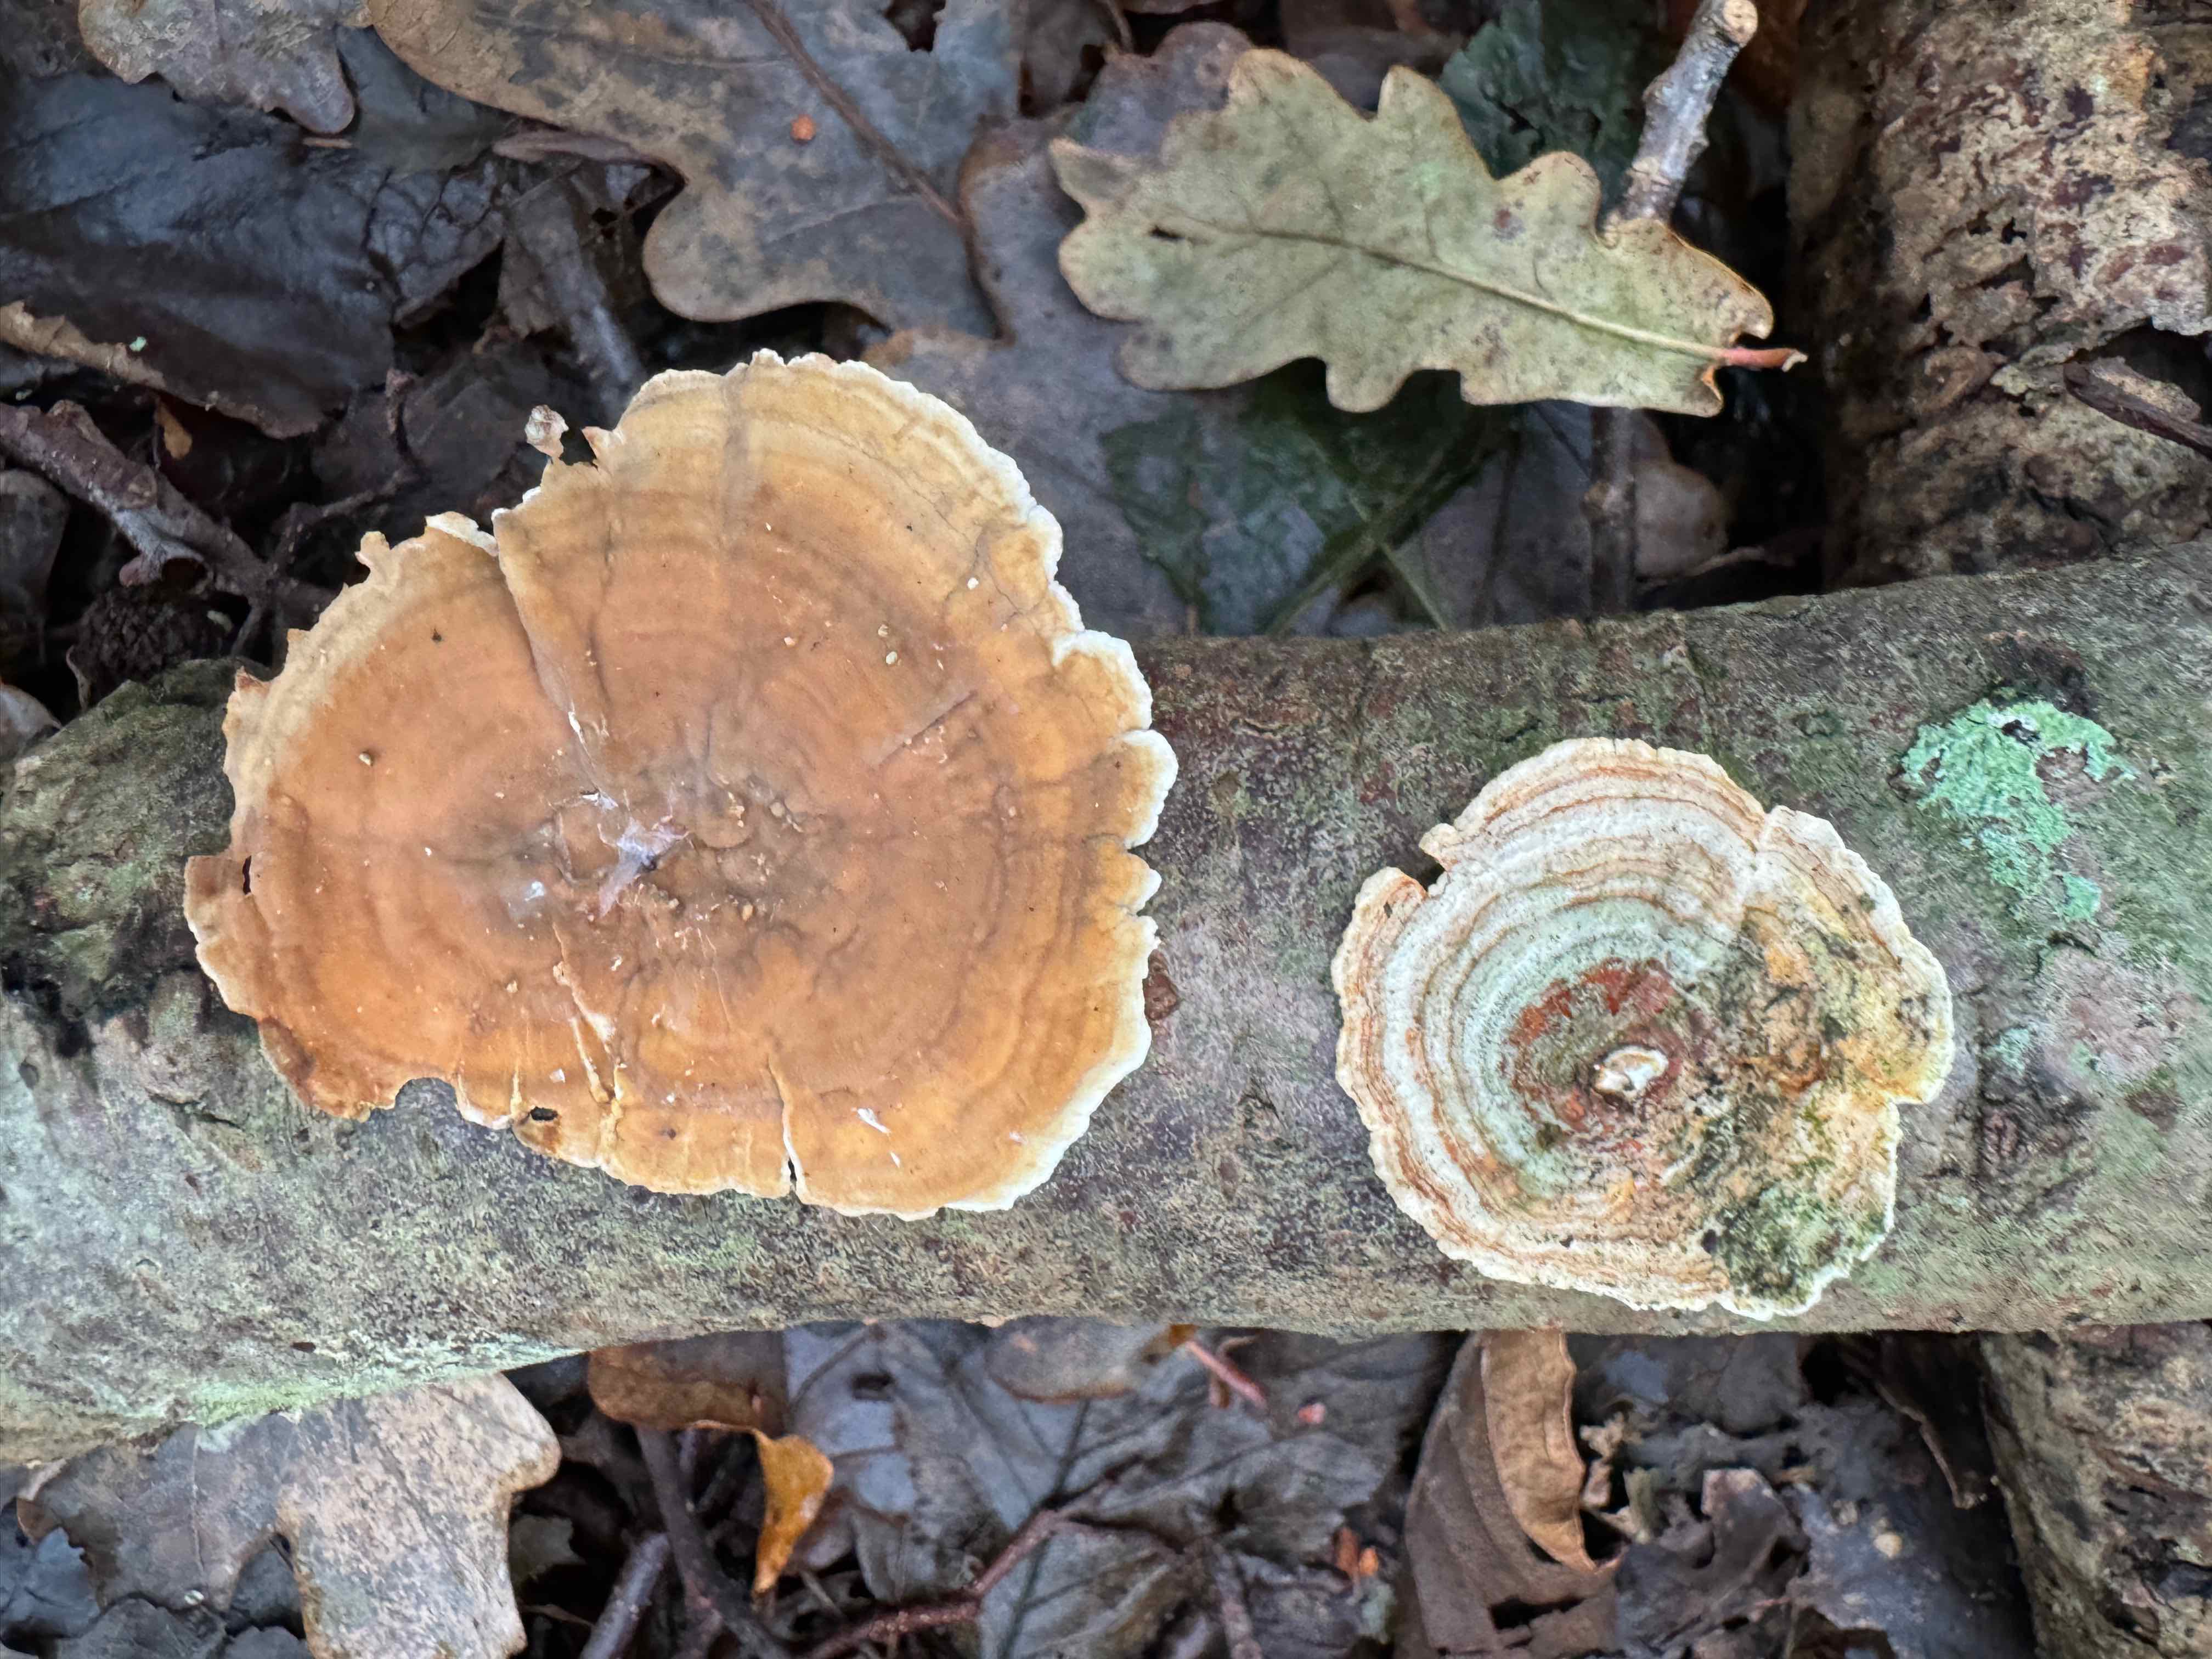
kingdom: Fungi
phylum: Basidiomycota
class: Agaricomycetes
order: Russulales
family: Stereaceae
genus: Stereum
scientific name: Stereum subtomentosum
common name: smuk lædersvamp
